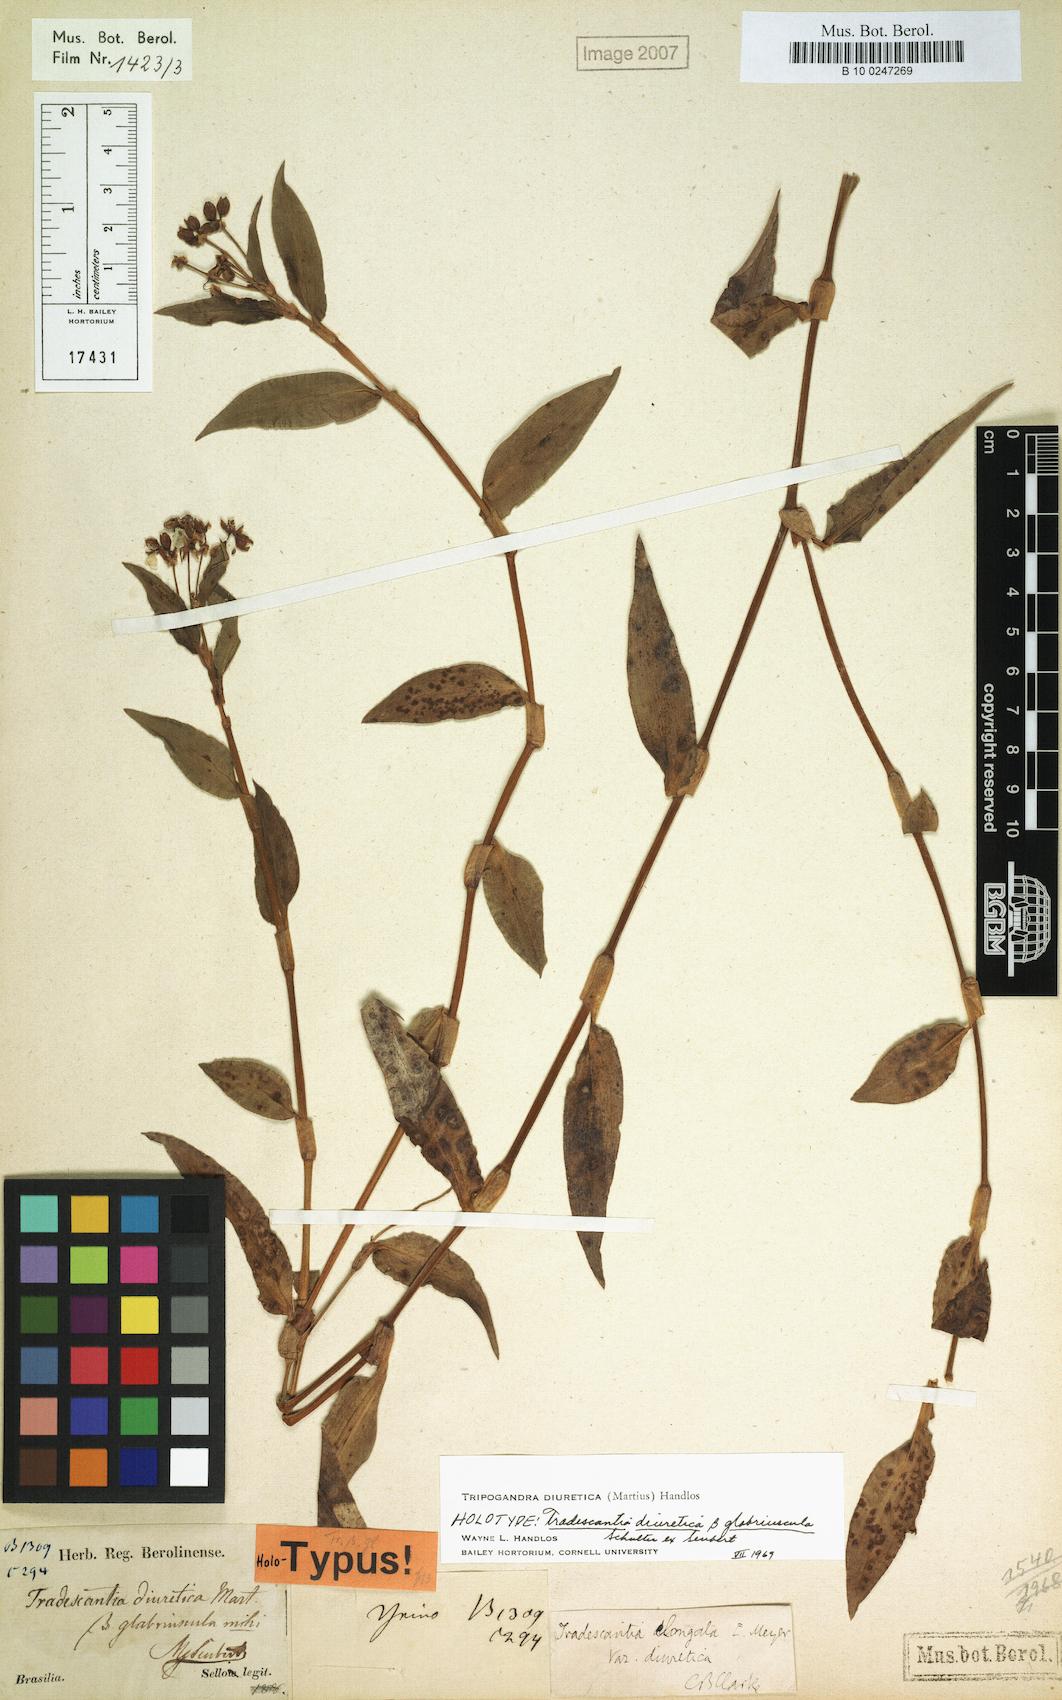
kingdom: Plantae
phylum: Tracheophyta
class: Liliopsida
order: Commelinales
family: Commelinaceae
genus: Callisia
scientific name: Callisia diuretica
